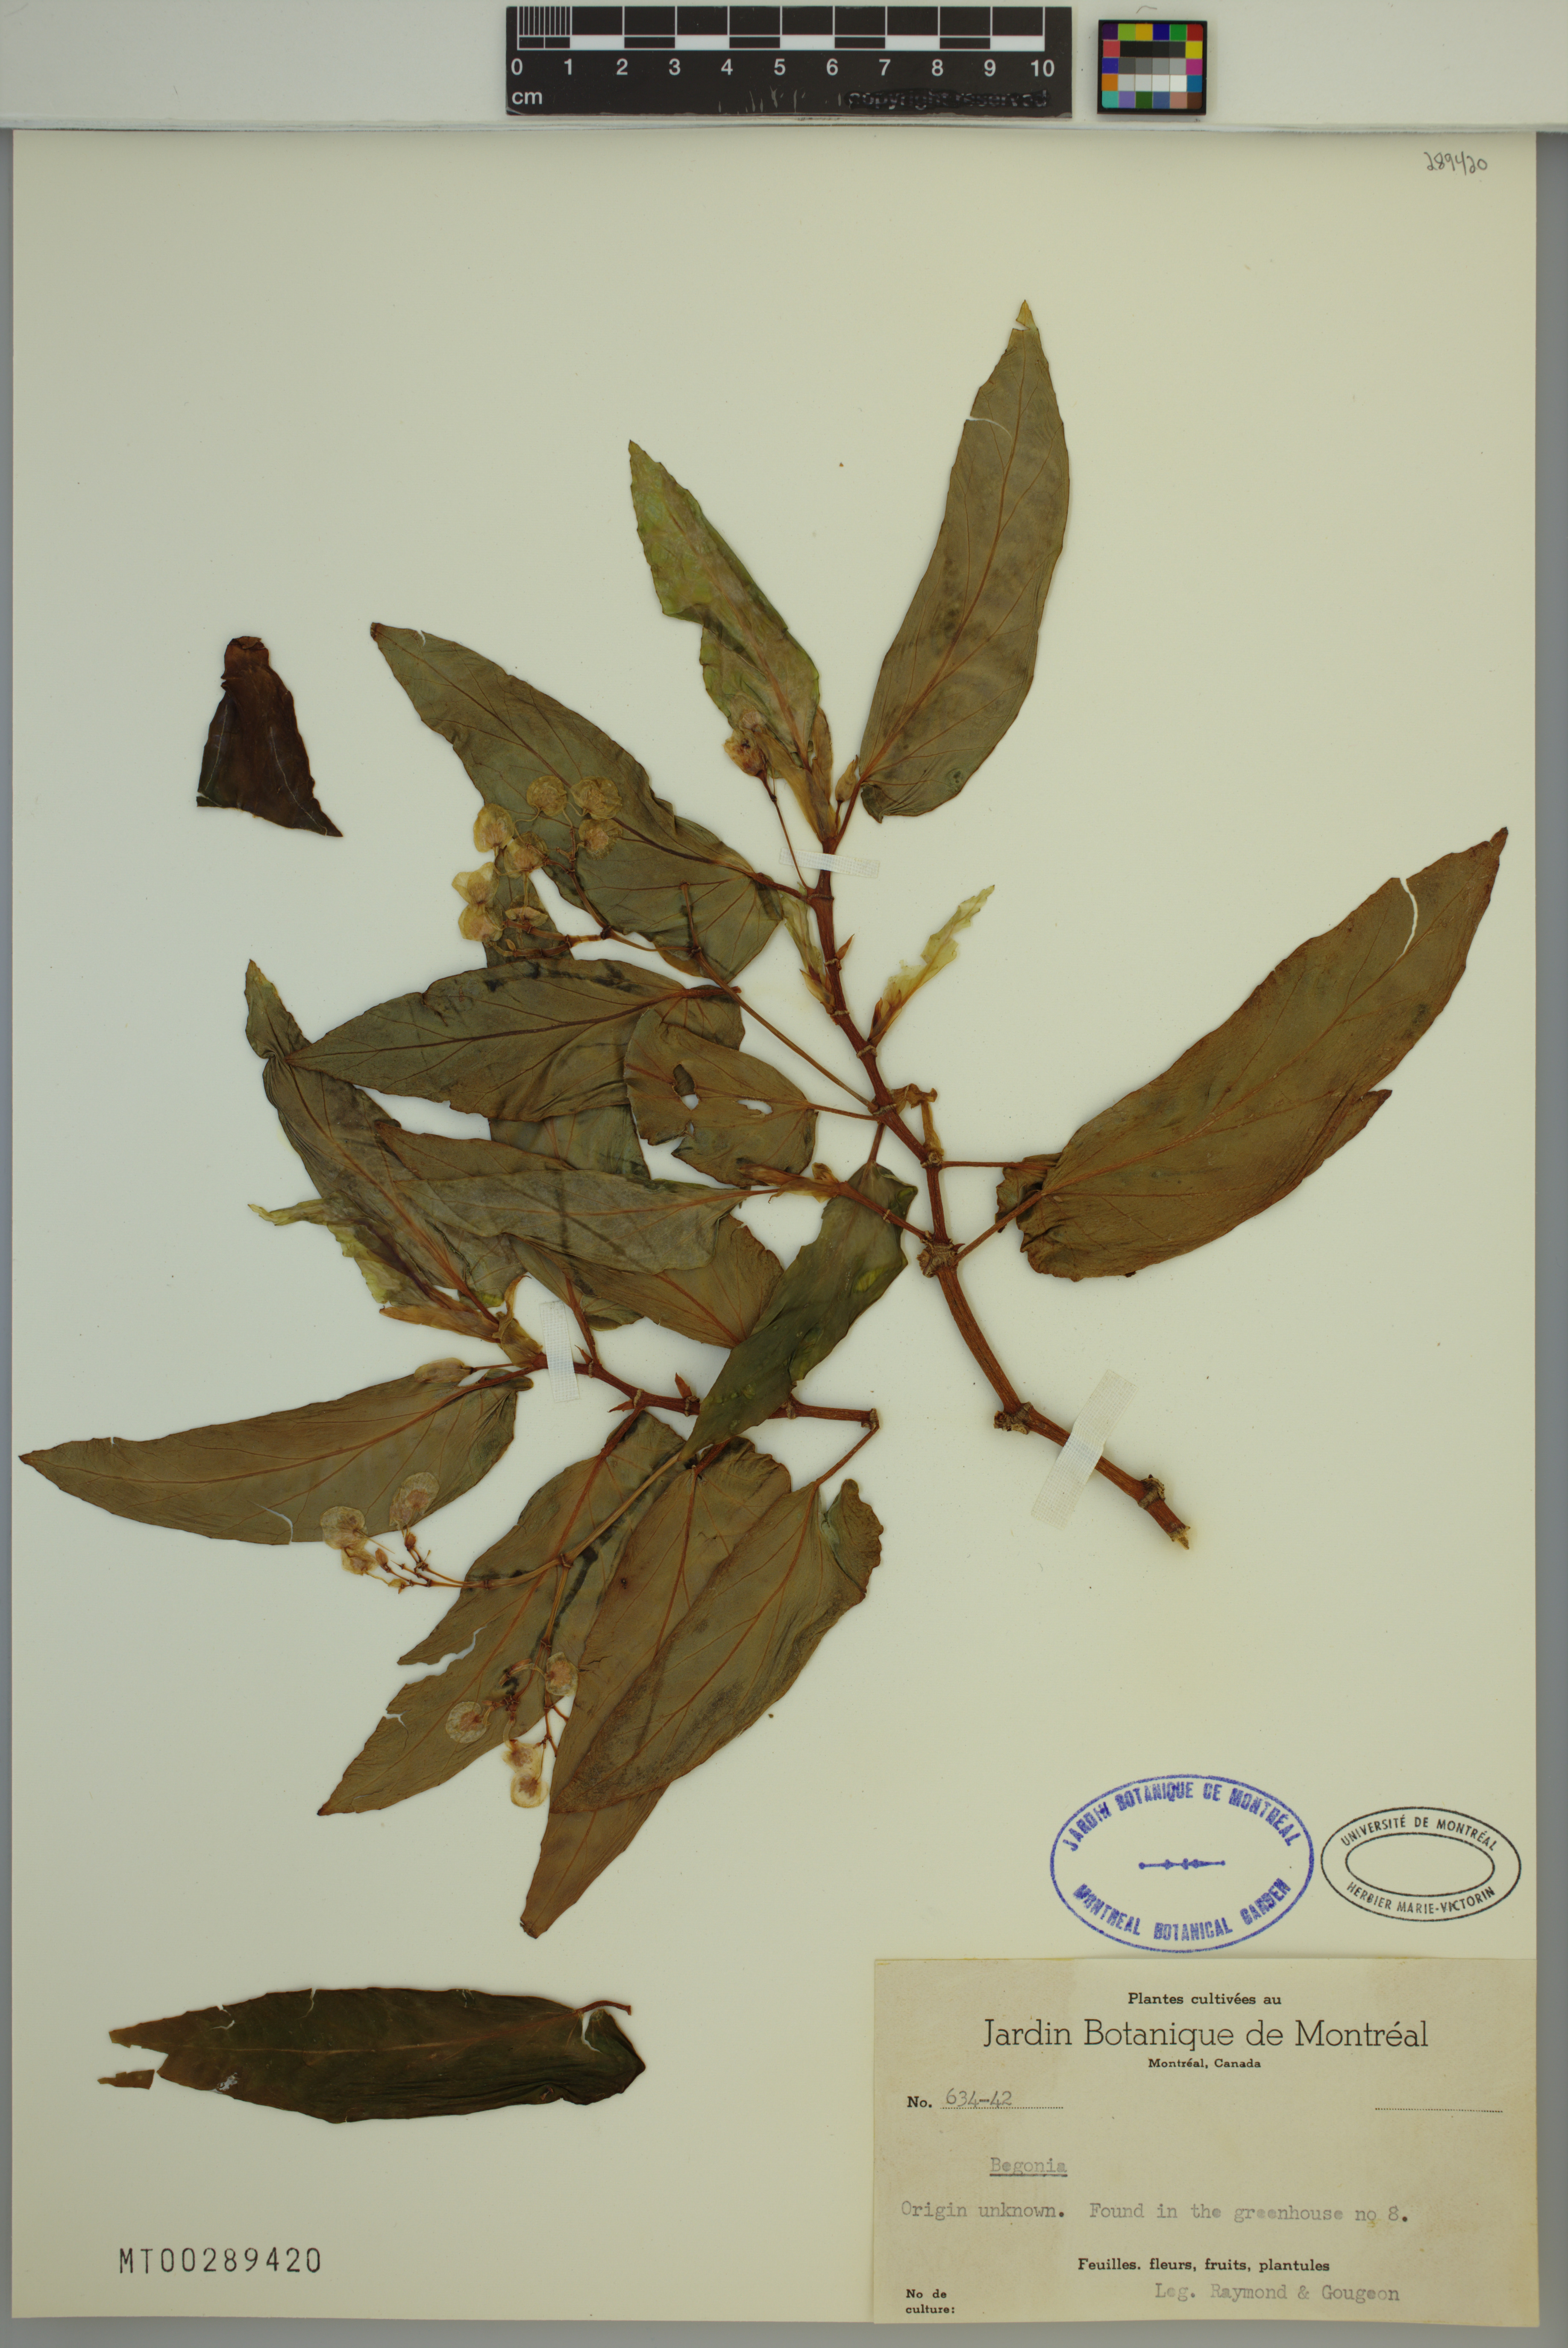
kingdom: Plantae
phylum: Tracheophyta
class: Magnoliopsida
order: Cucurbitales
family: Begoniaceae
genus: Begonia
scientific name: Begonia
